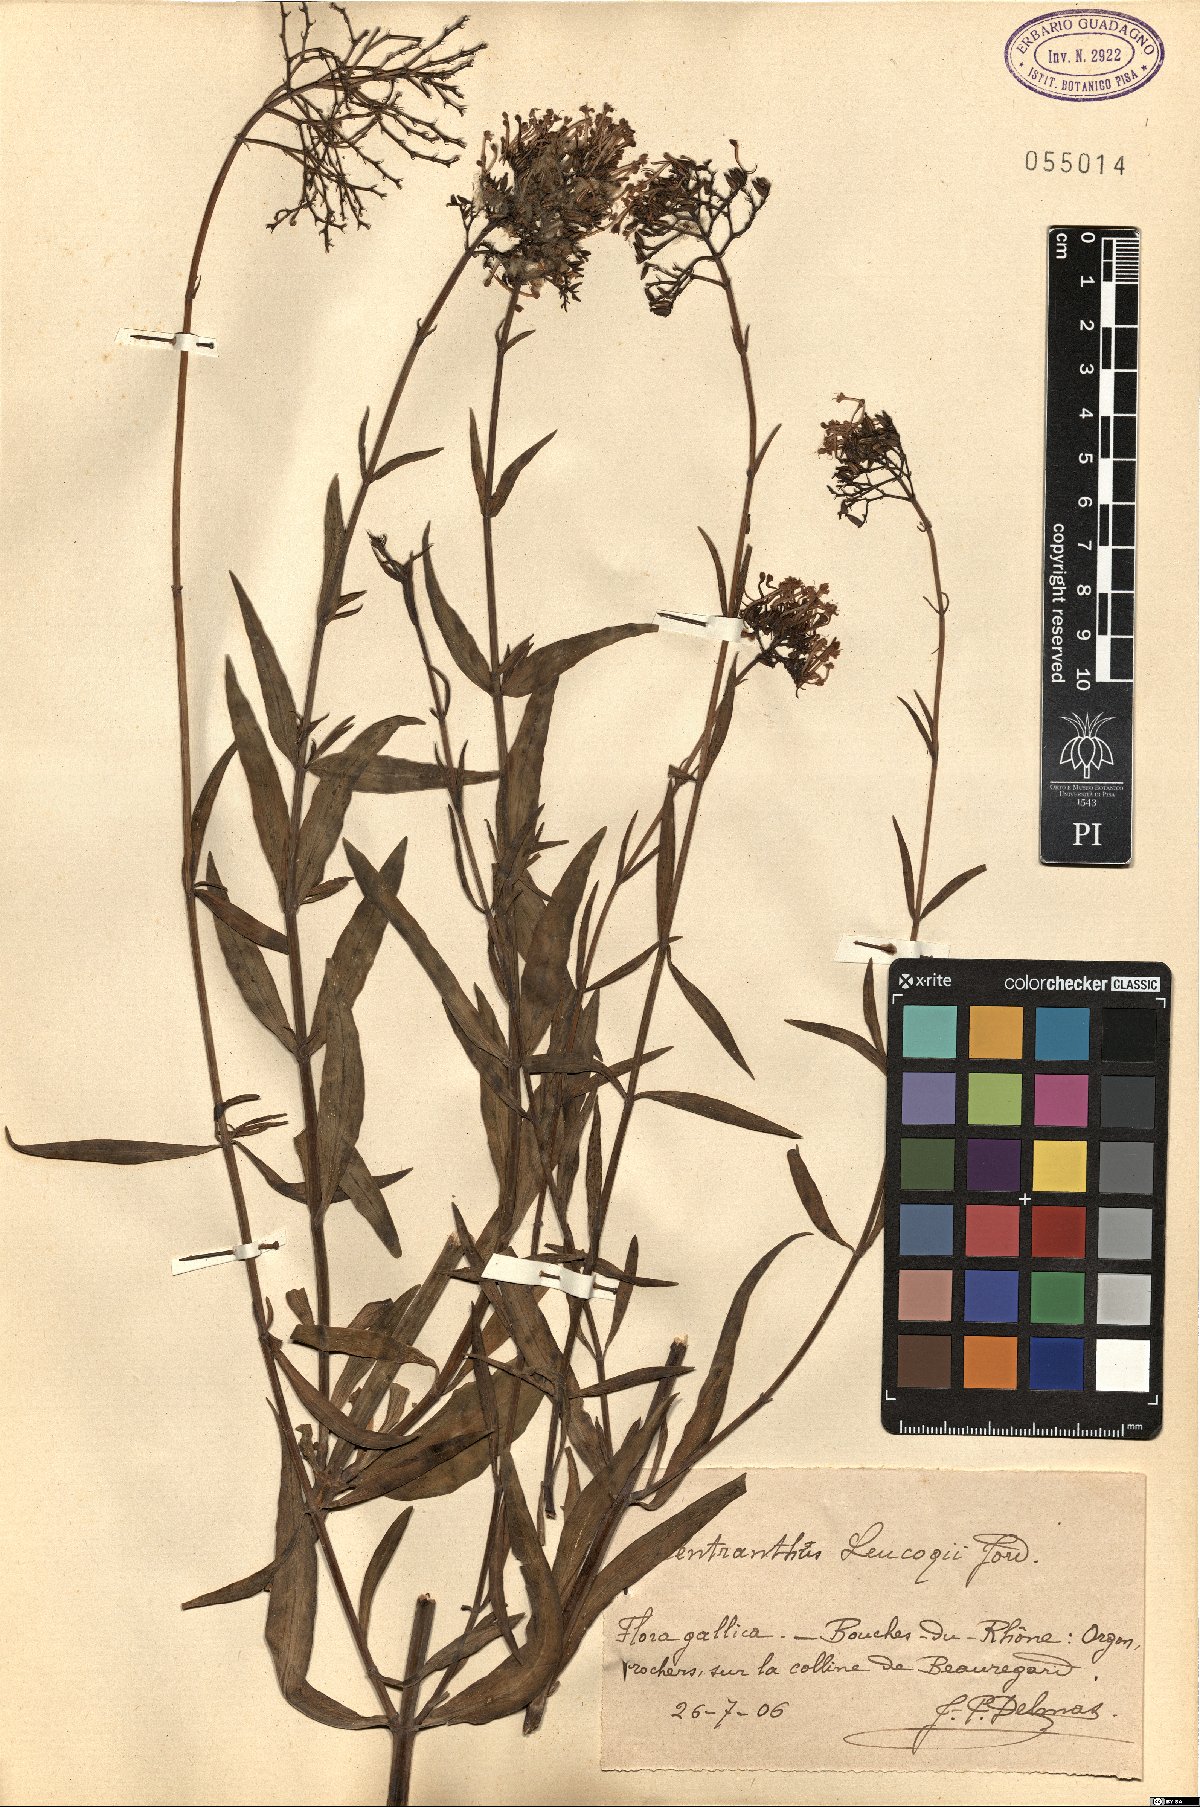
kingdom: Plantae
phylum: Tracheophyta
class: Magnoliopsida
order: Dipsacales
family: Caprifoliaceae
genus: Centranthus
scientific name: Centranthus lecoqii
